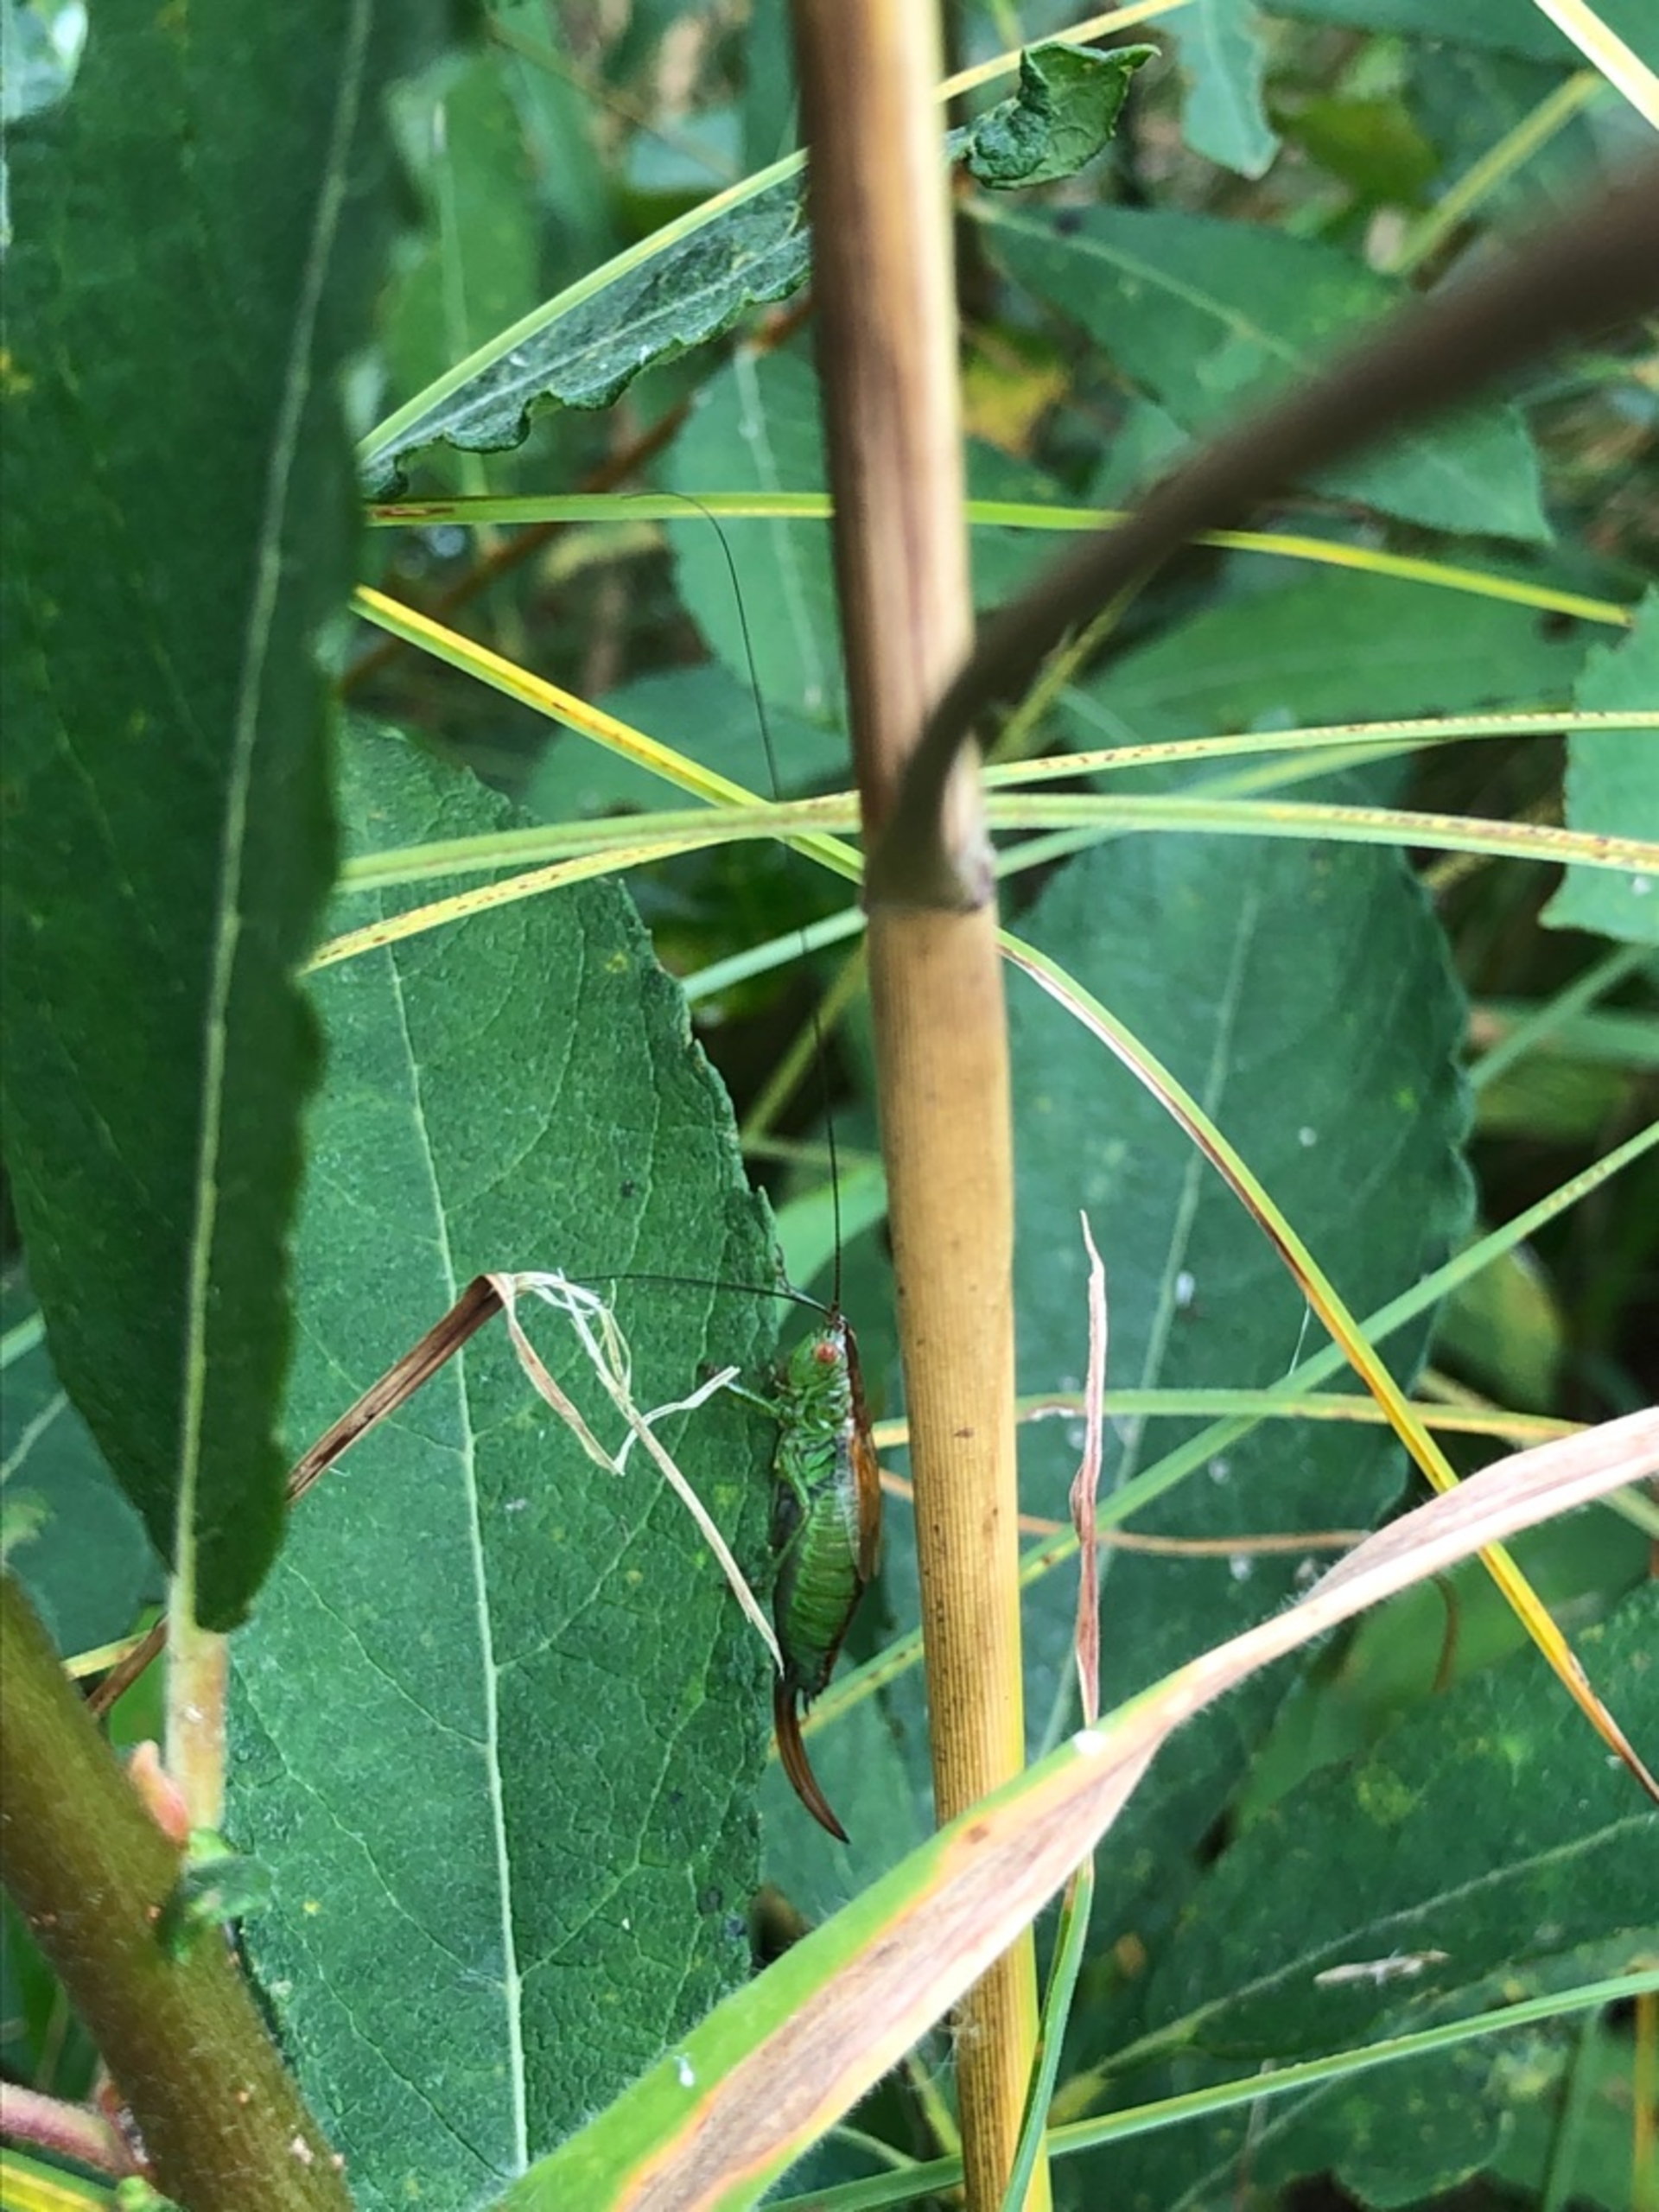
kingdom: Animalia
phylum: Arthropoda
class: Insecta
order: Orthoptera
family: Tettigoniidae
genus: Conocephalus
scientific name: Conocephalus dorsalis
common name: Sivgræshoppe
